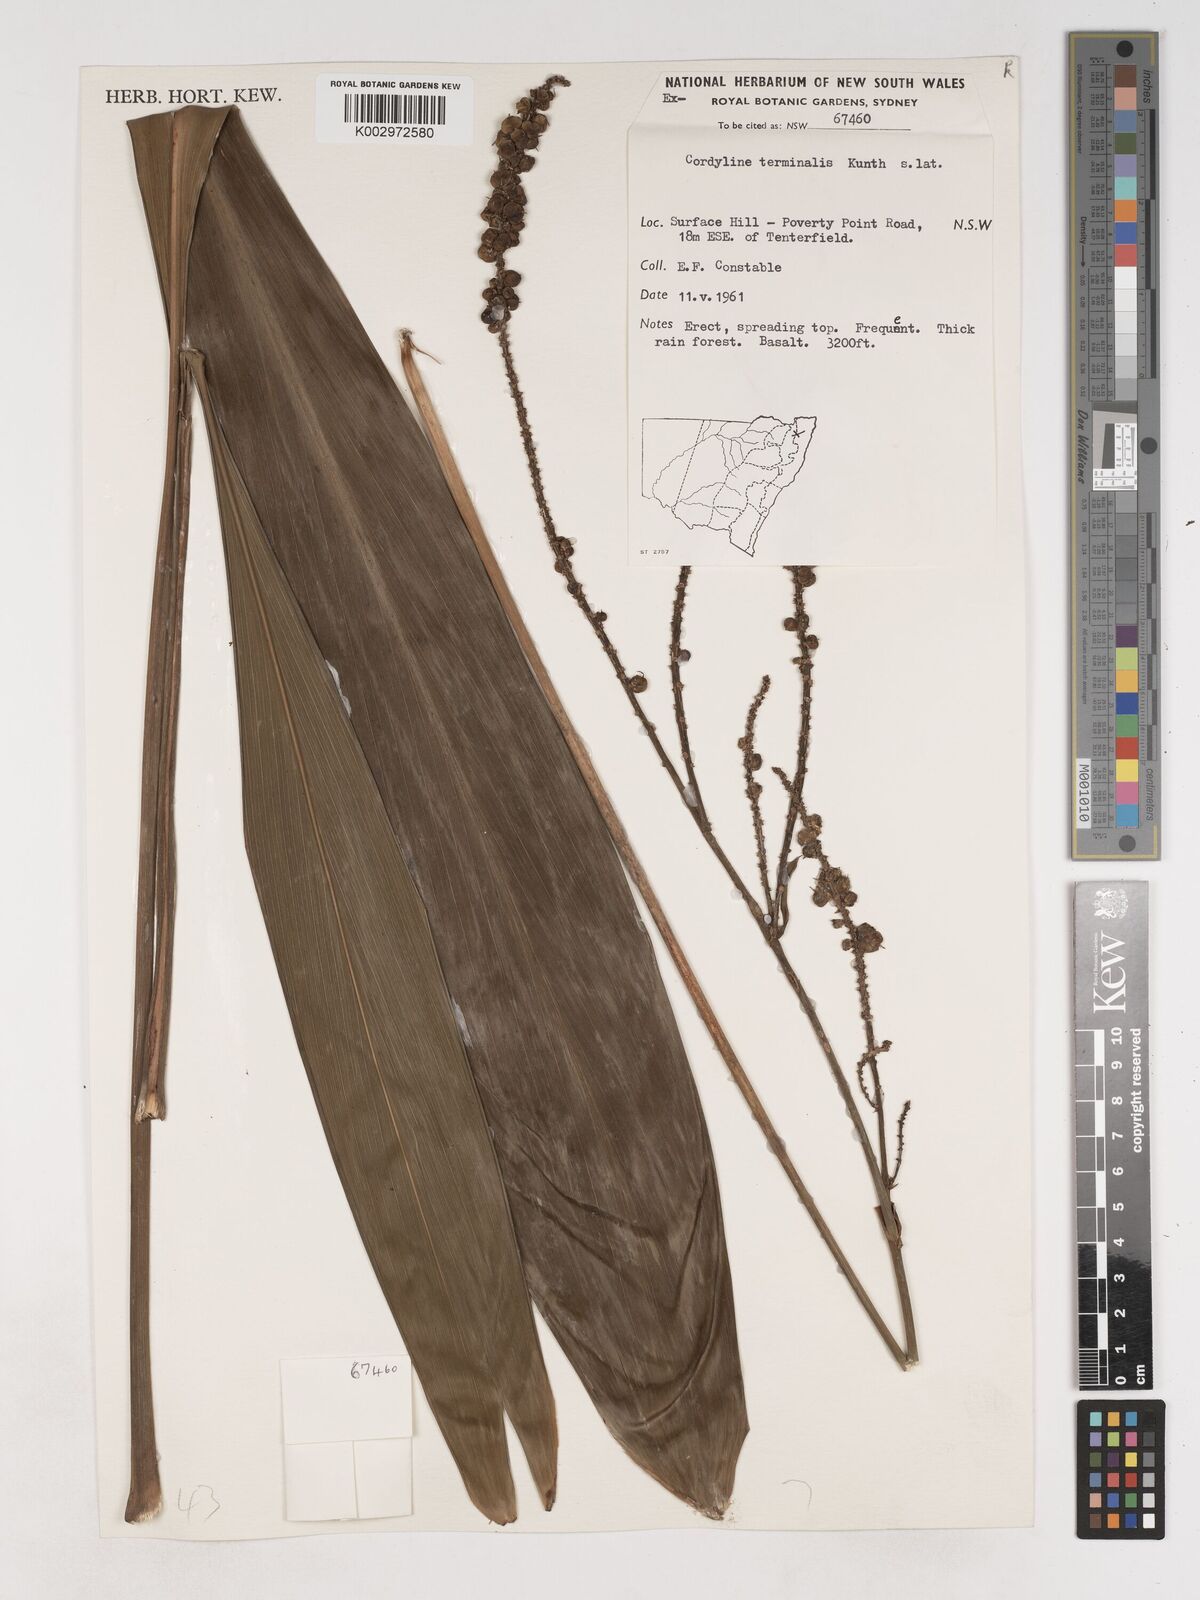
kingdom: Plantae
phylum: Tracheophyta
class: Liliopsida
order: Asparagales
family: Asparagaceae
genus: Cordyline
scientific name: Cordyline fruticosa
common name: Good-luck-plant
